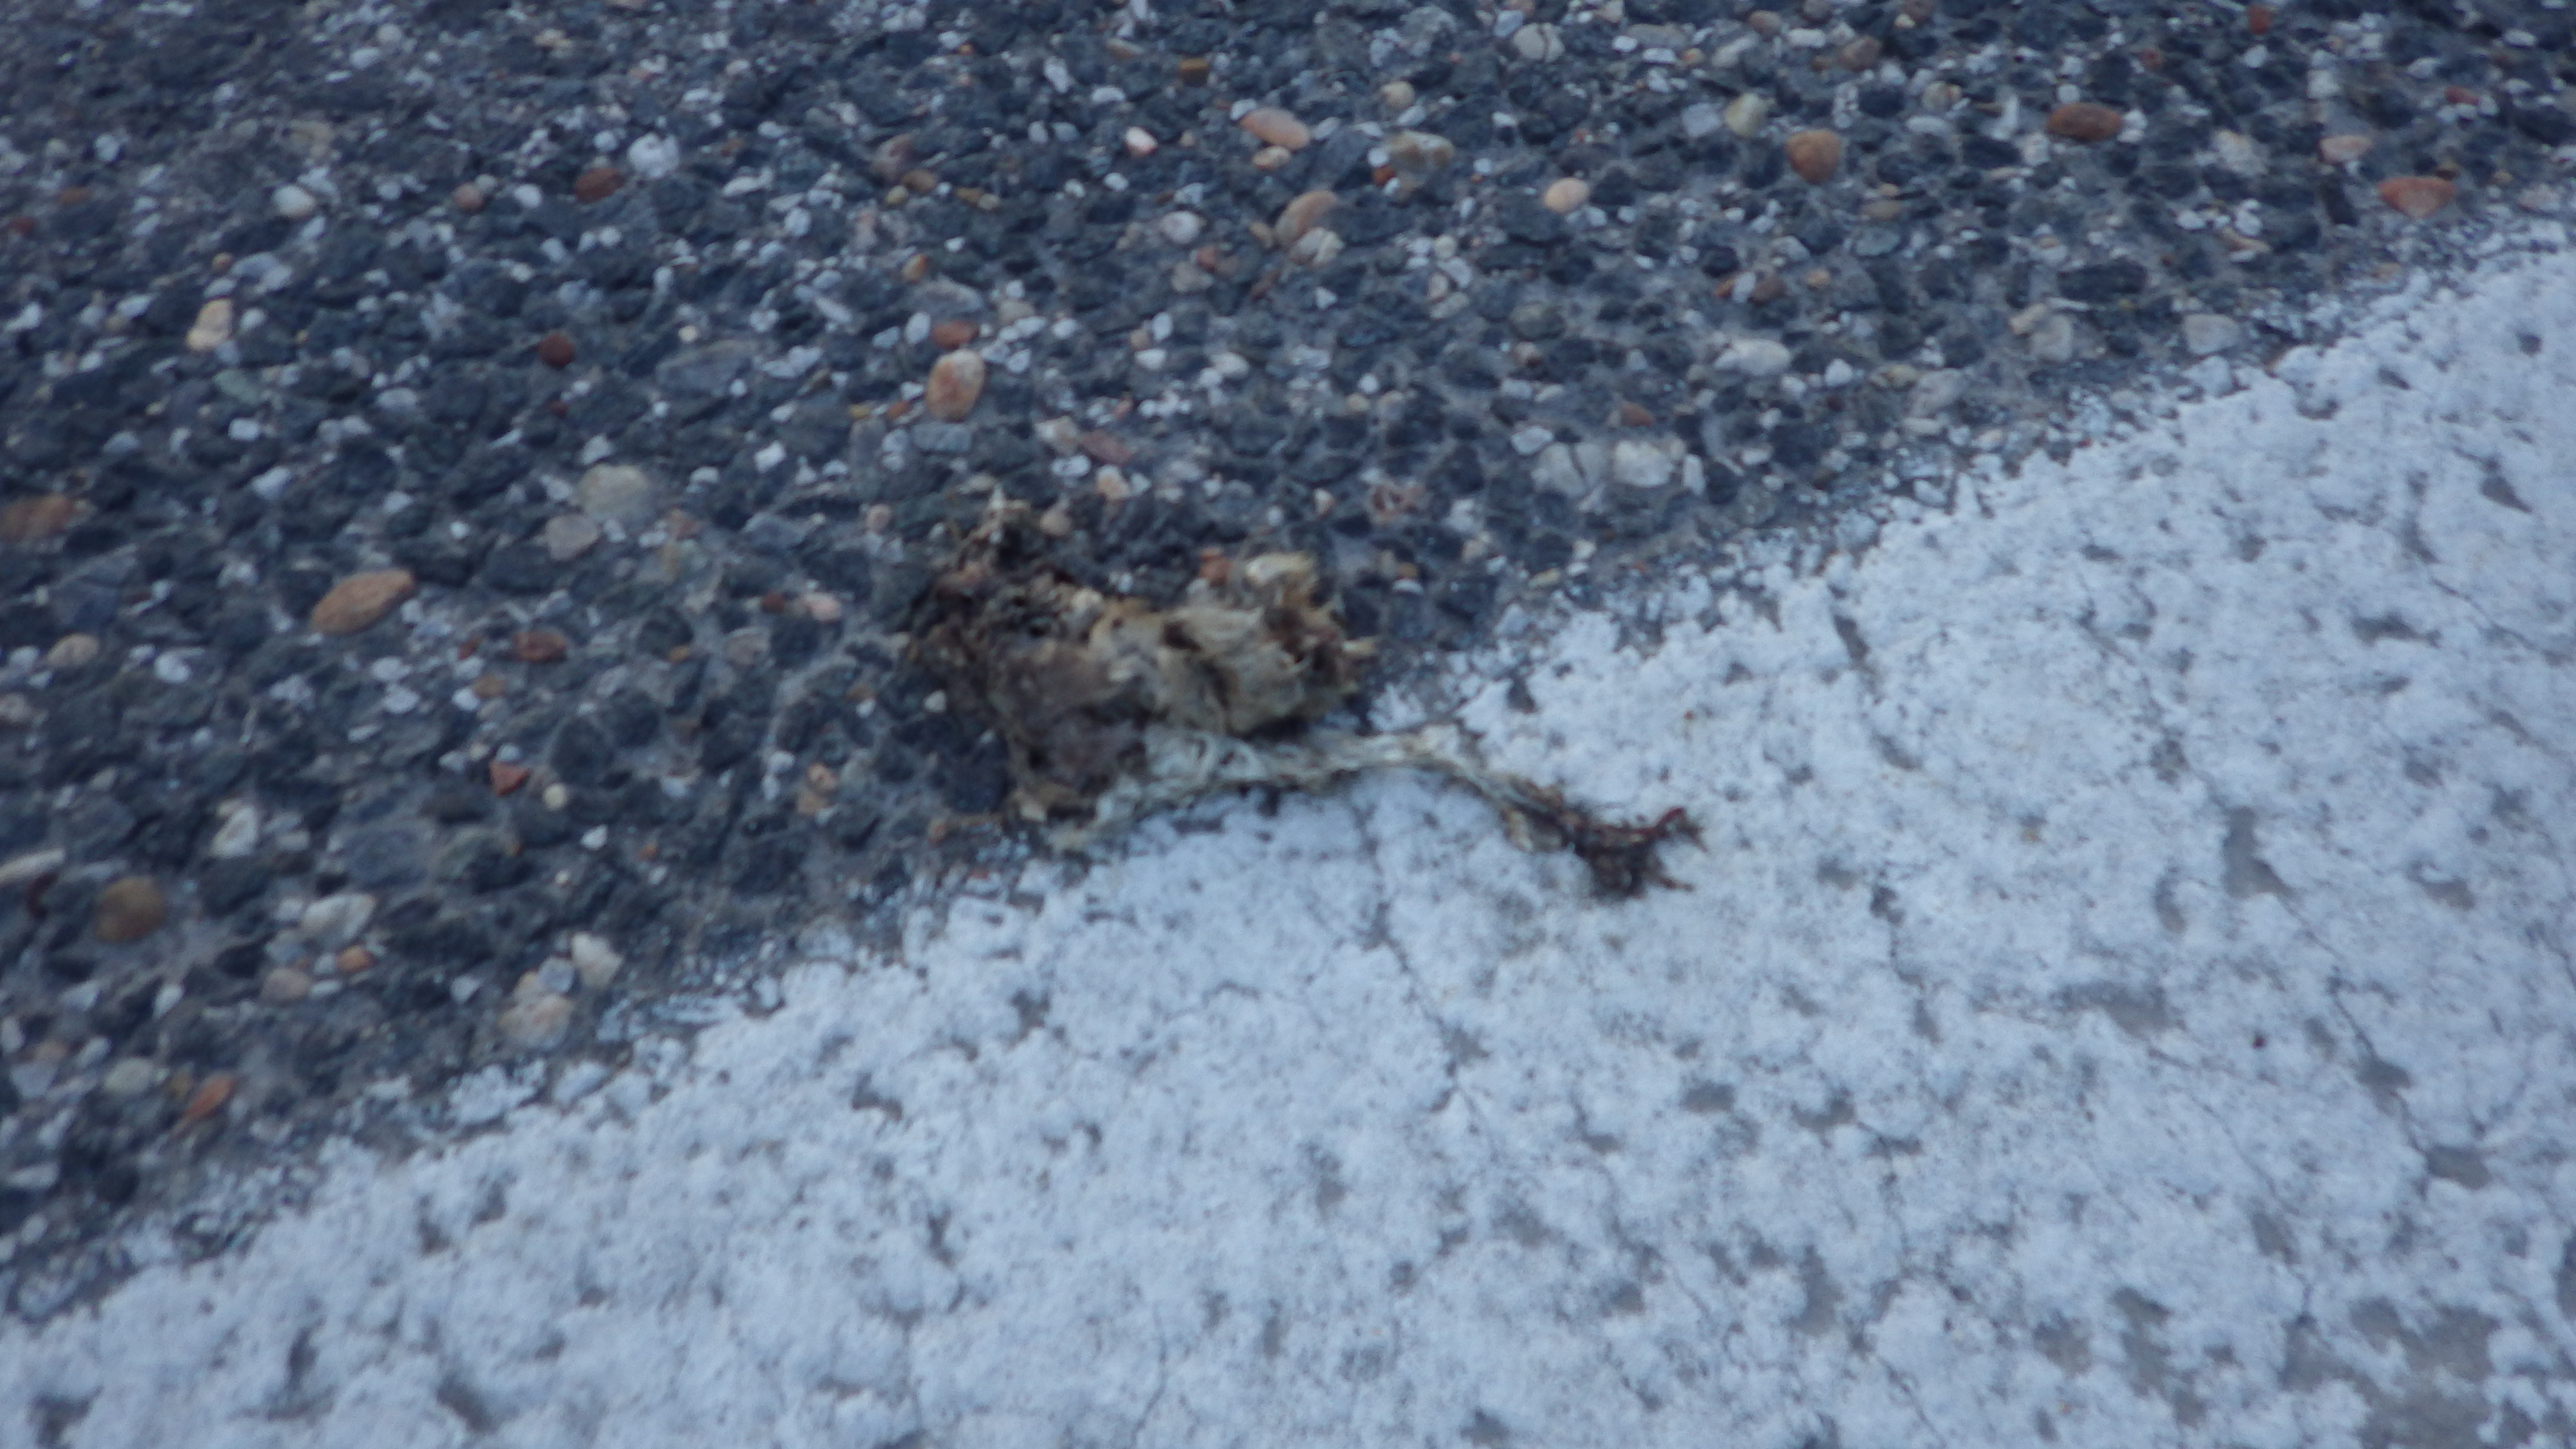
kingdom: Animalia
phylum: Chordata
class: Aves
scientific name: Aves
